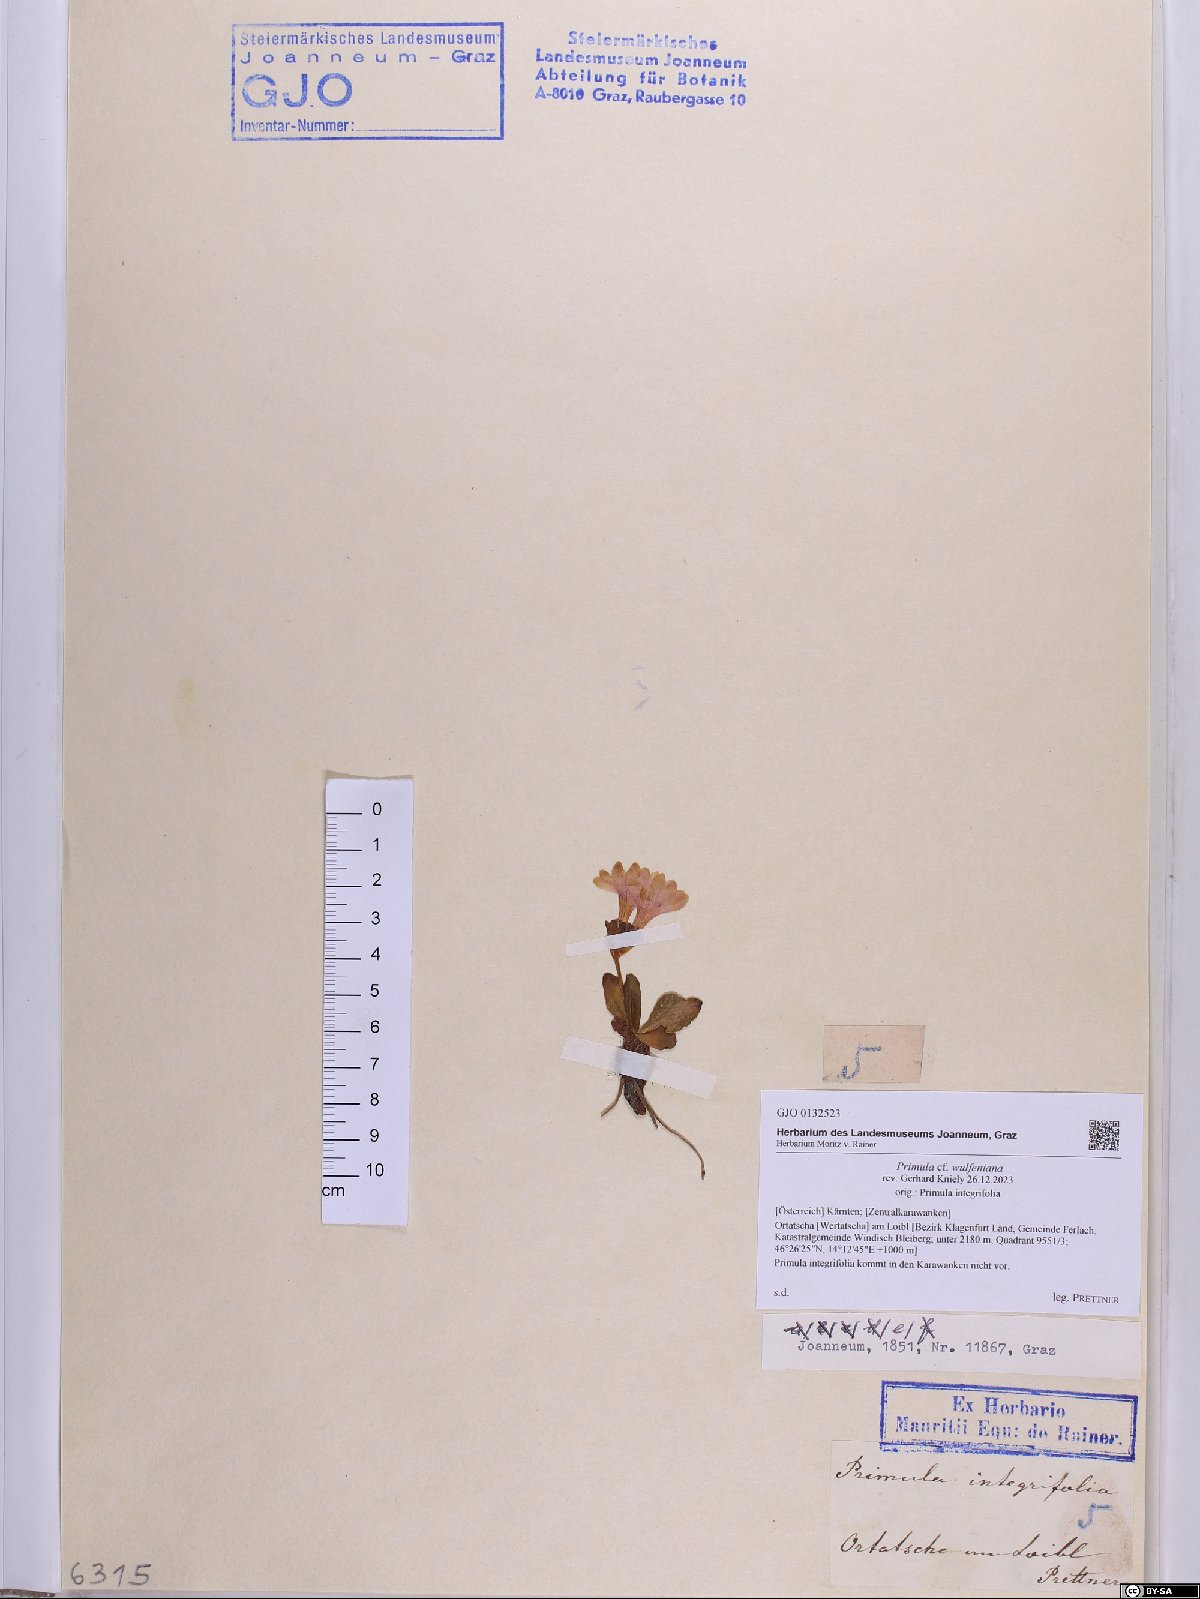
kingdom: Plantae
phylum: Tracheophyta
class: Magnoliopsida
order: Ericales
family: Primulaceae
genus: Primula
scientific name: Primula wulfeniana
